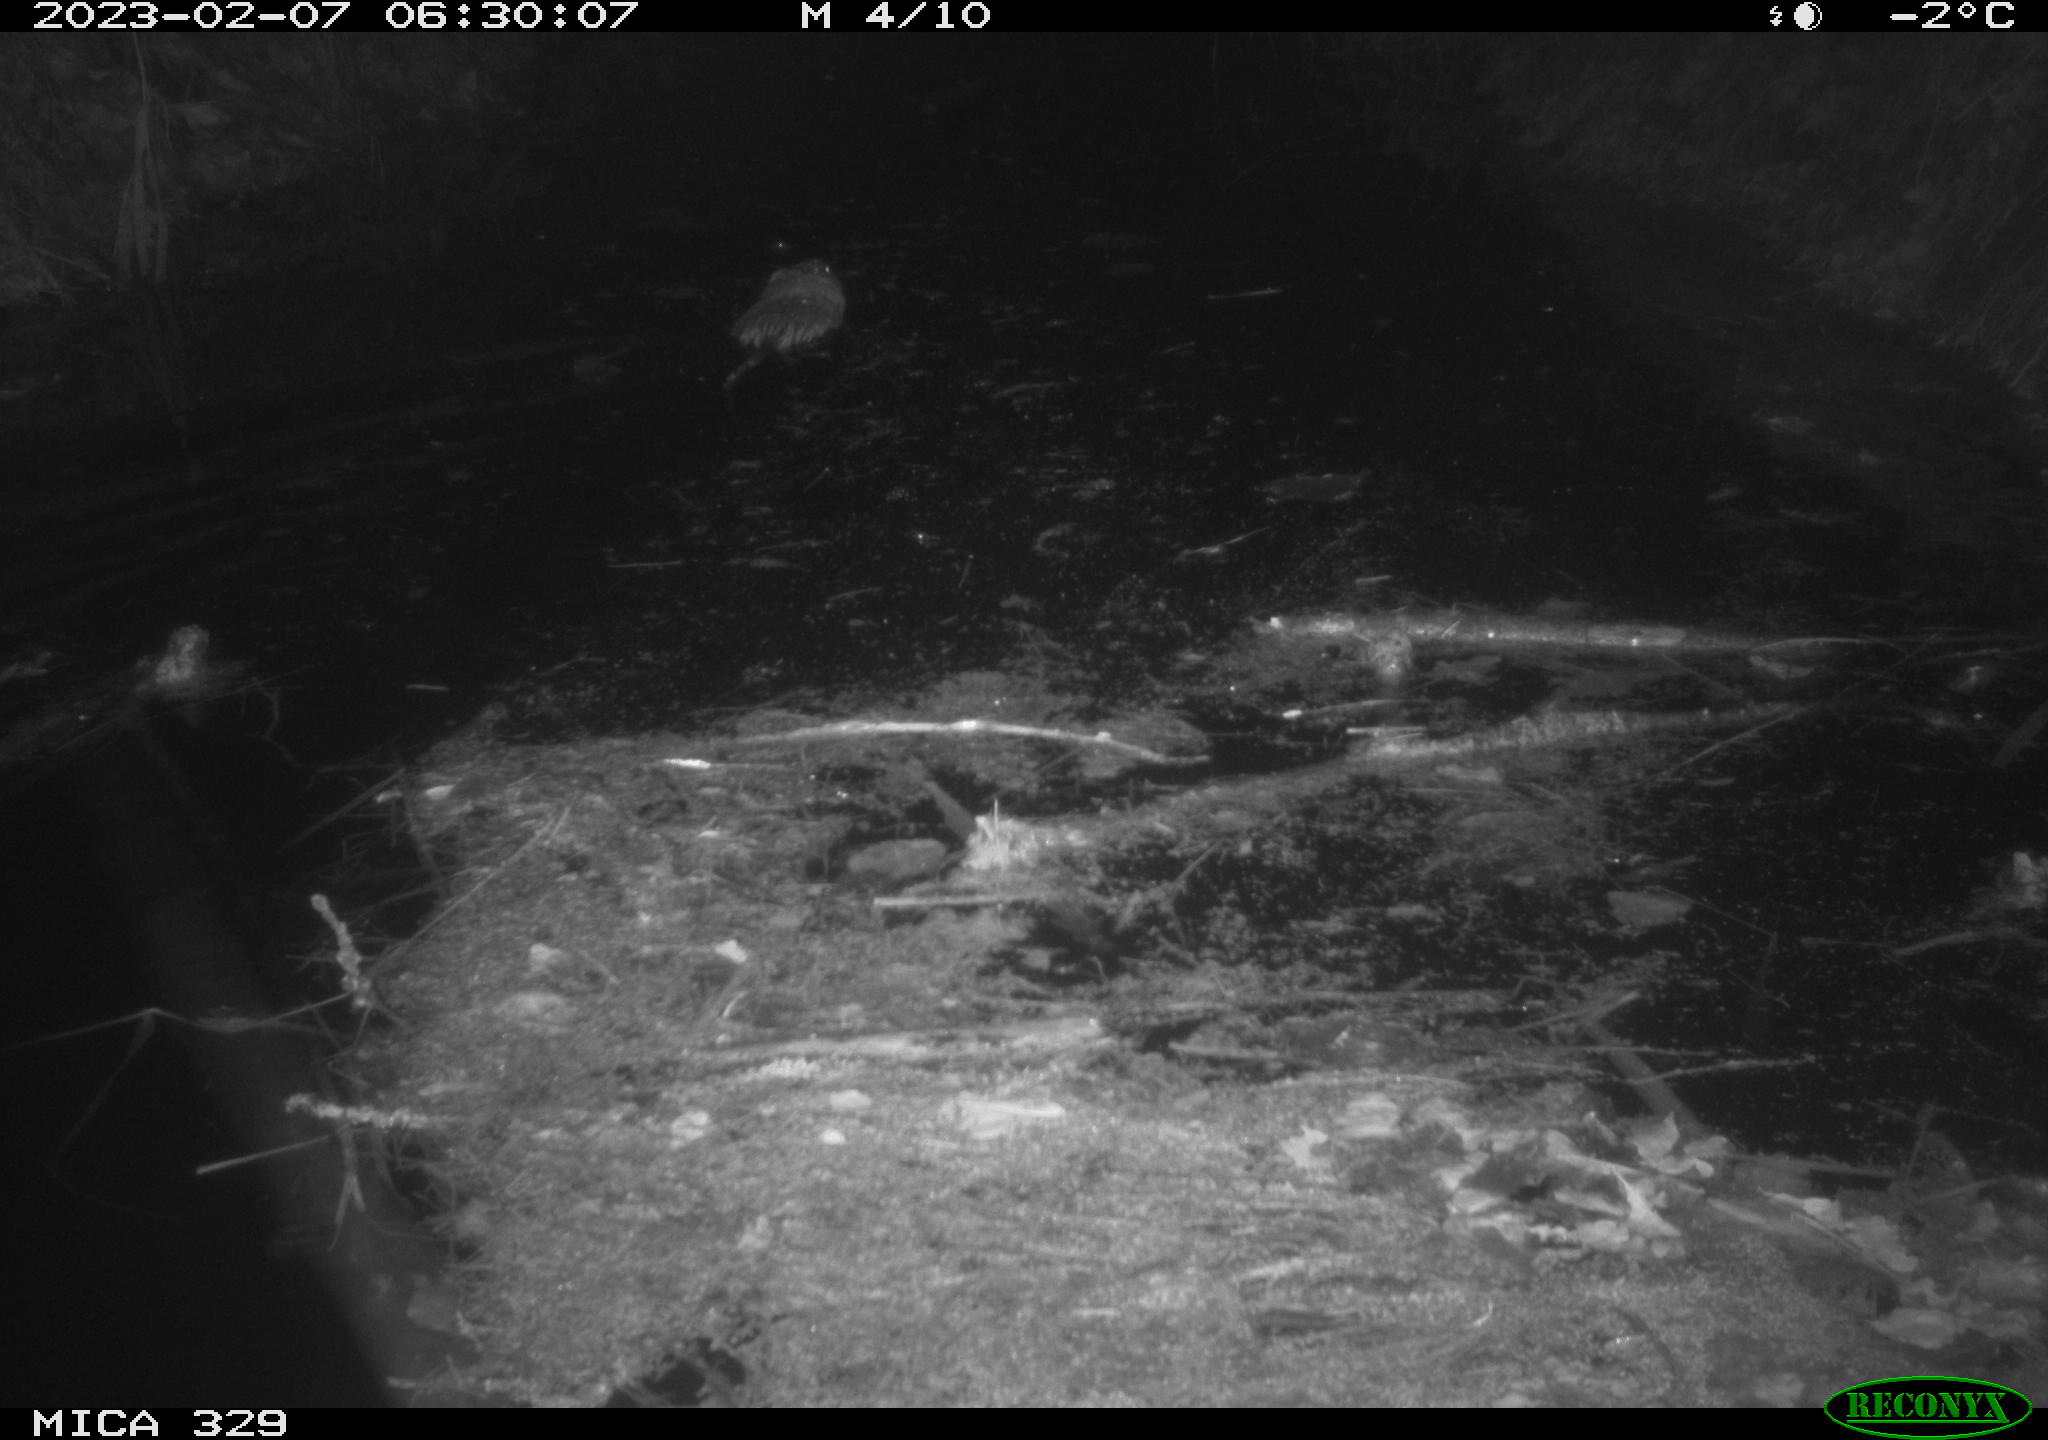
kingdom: Animalia
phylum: Chordata
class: Mammalia
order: Rodentia
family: Cricetidae
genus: Ondatra
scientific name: Ondatra zibethicus
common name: Muskrat
